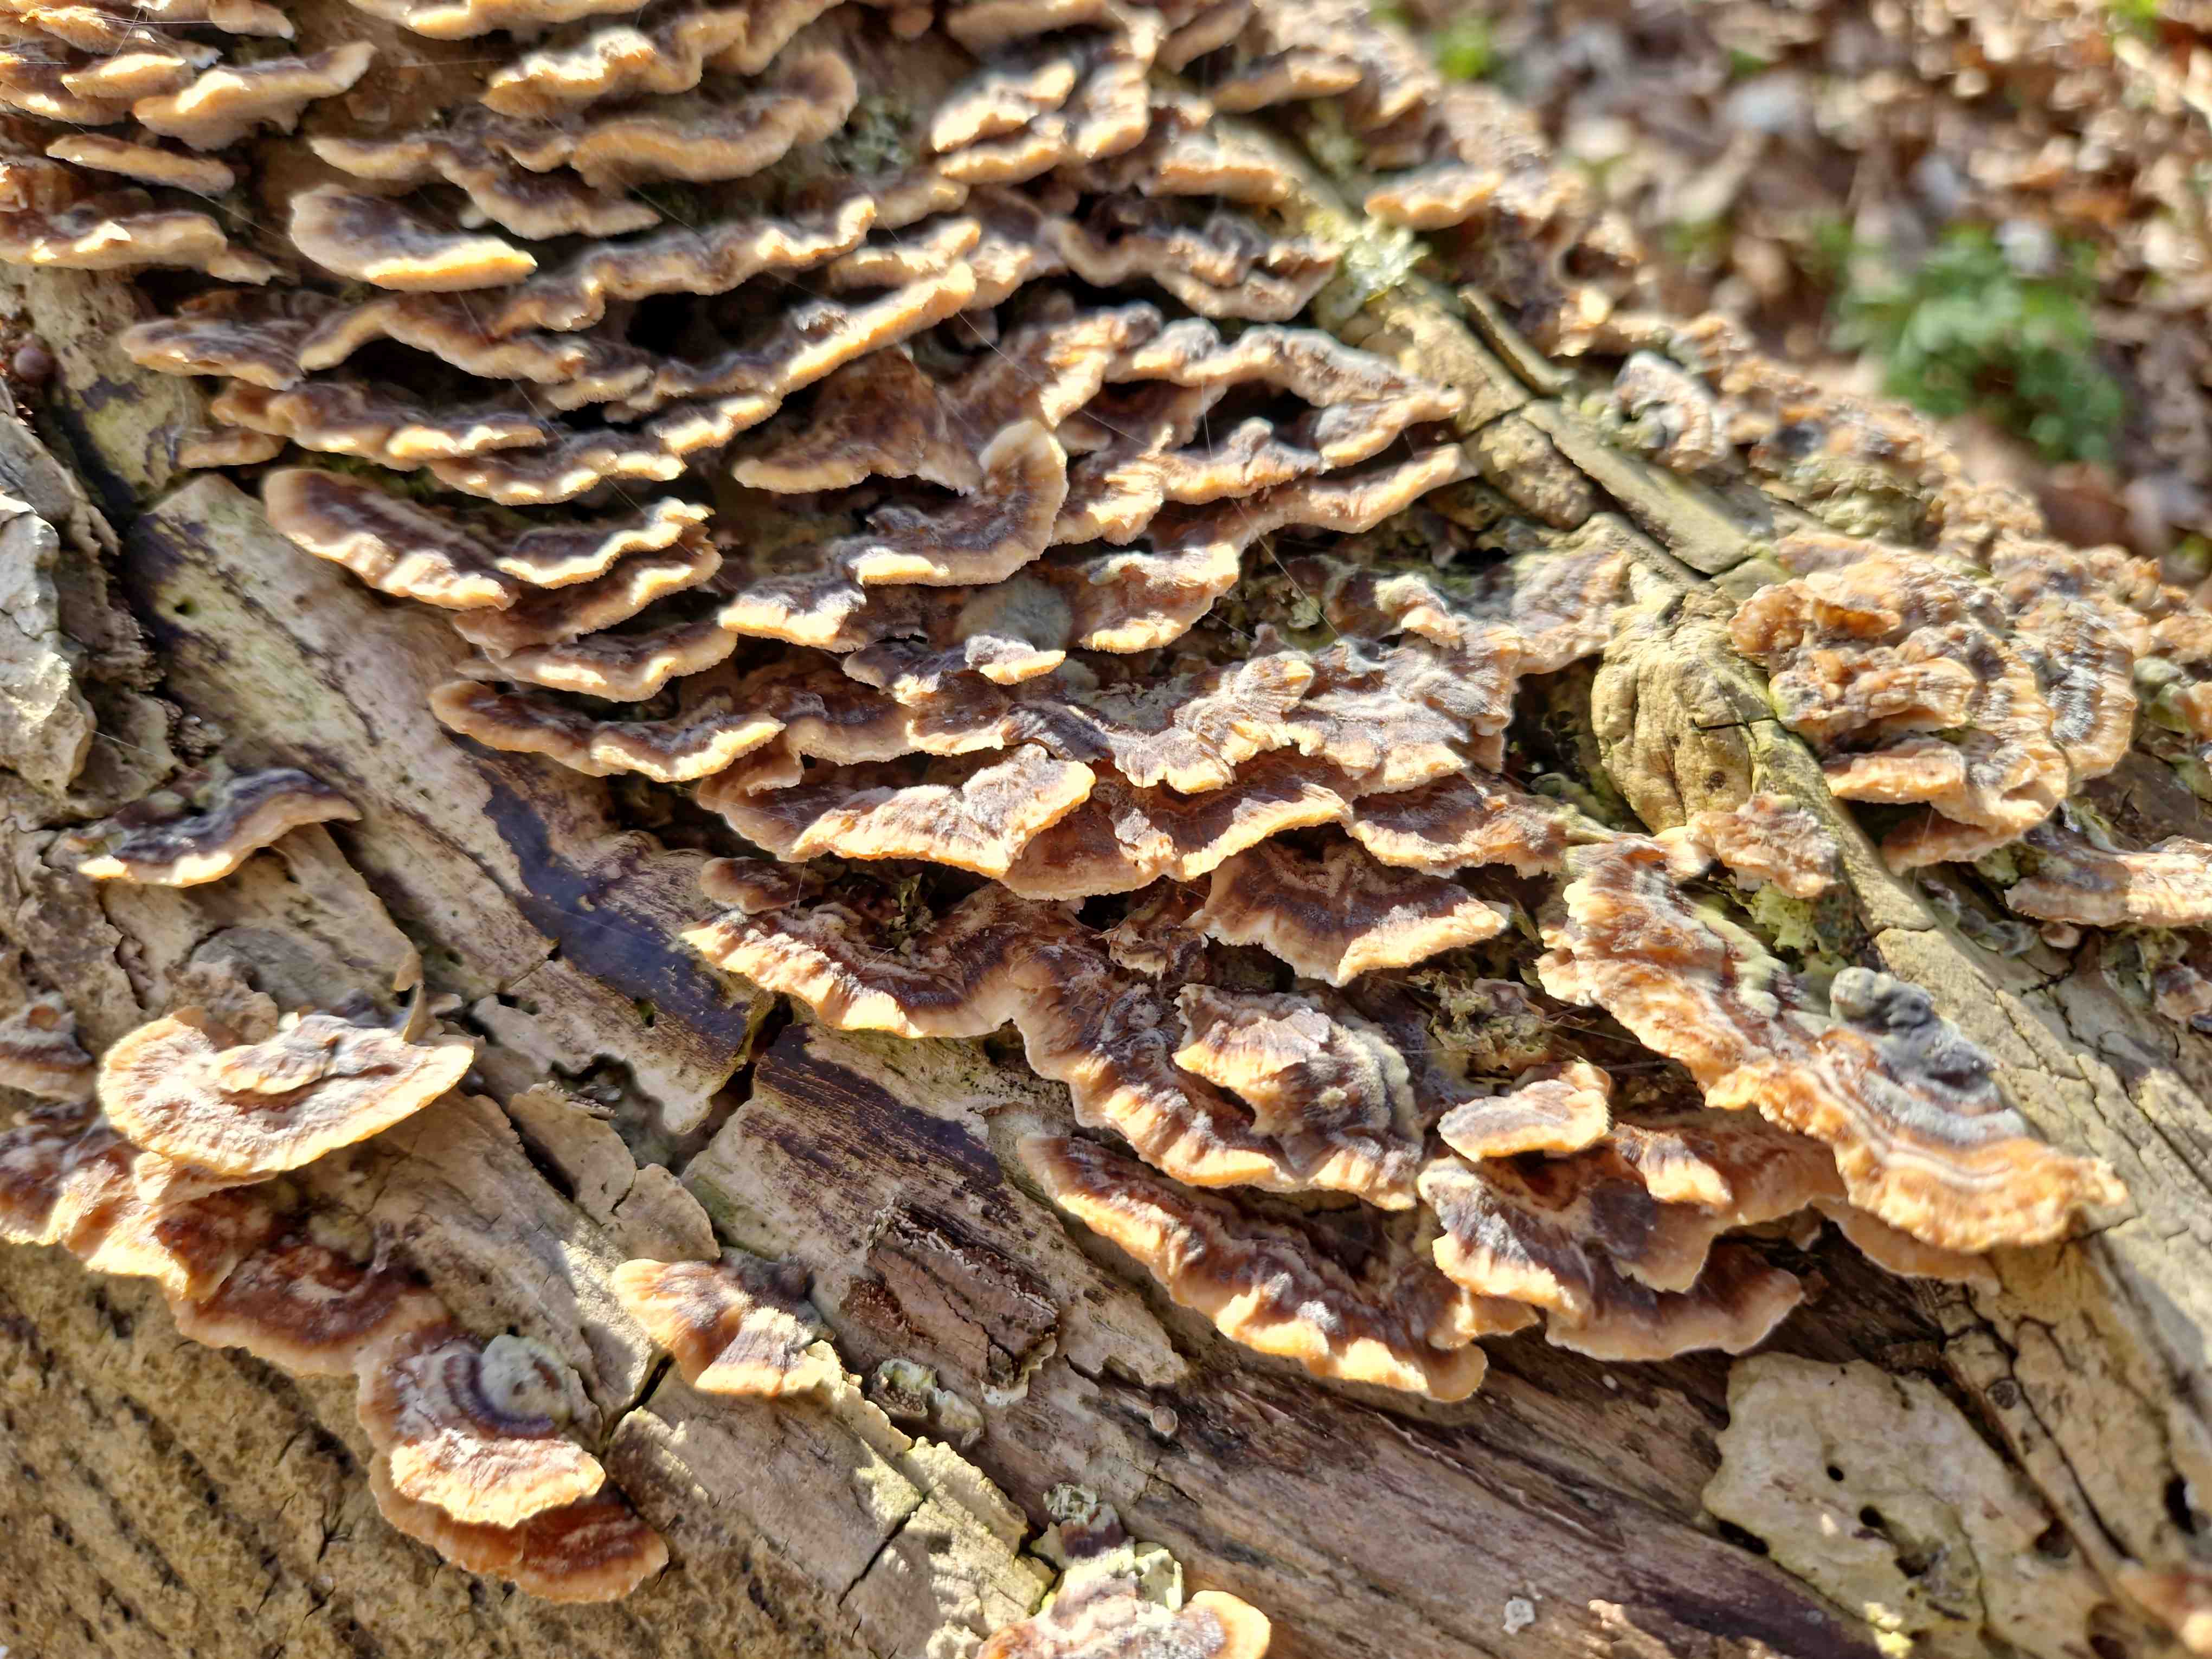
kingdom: Fungi
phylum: Basidiomycota
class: Agaricomycetes
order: Polyporales
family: Polyporaceae
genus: Trametes
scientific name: Trametes versicolor
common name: broget læderporesvamp
